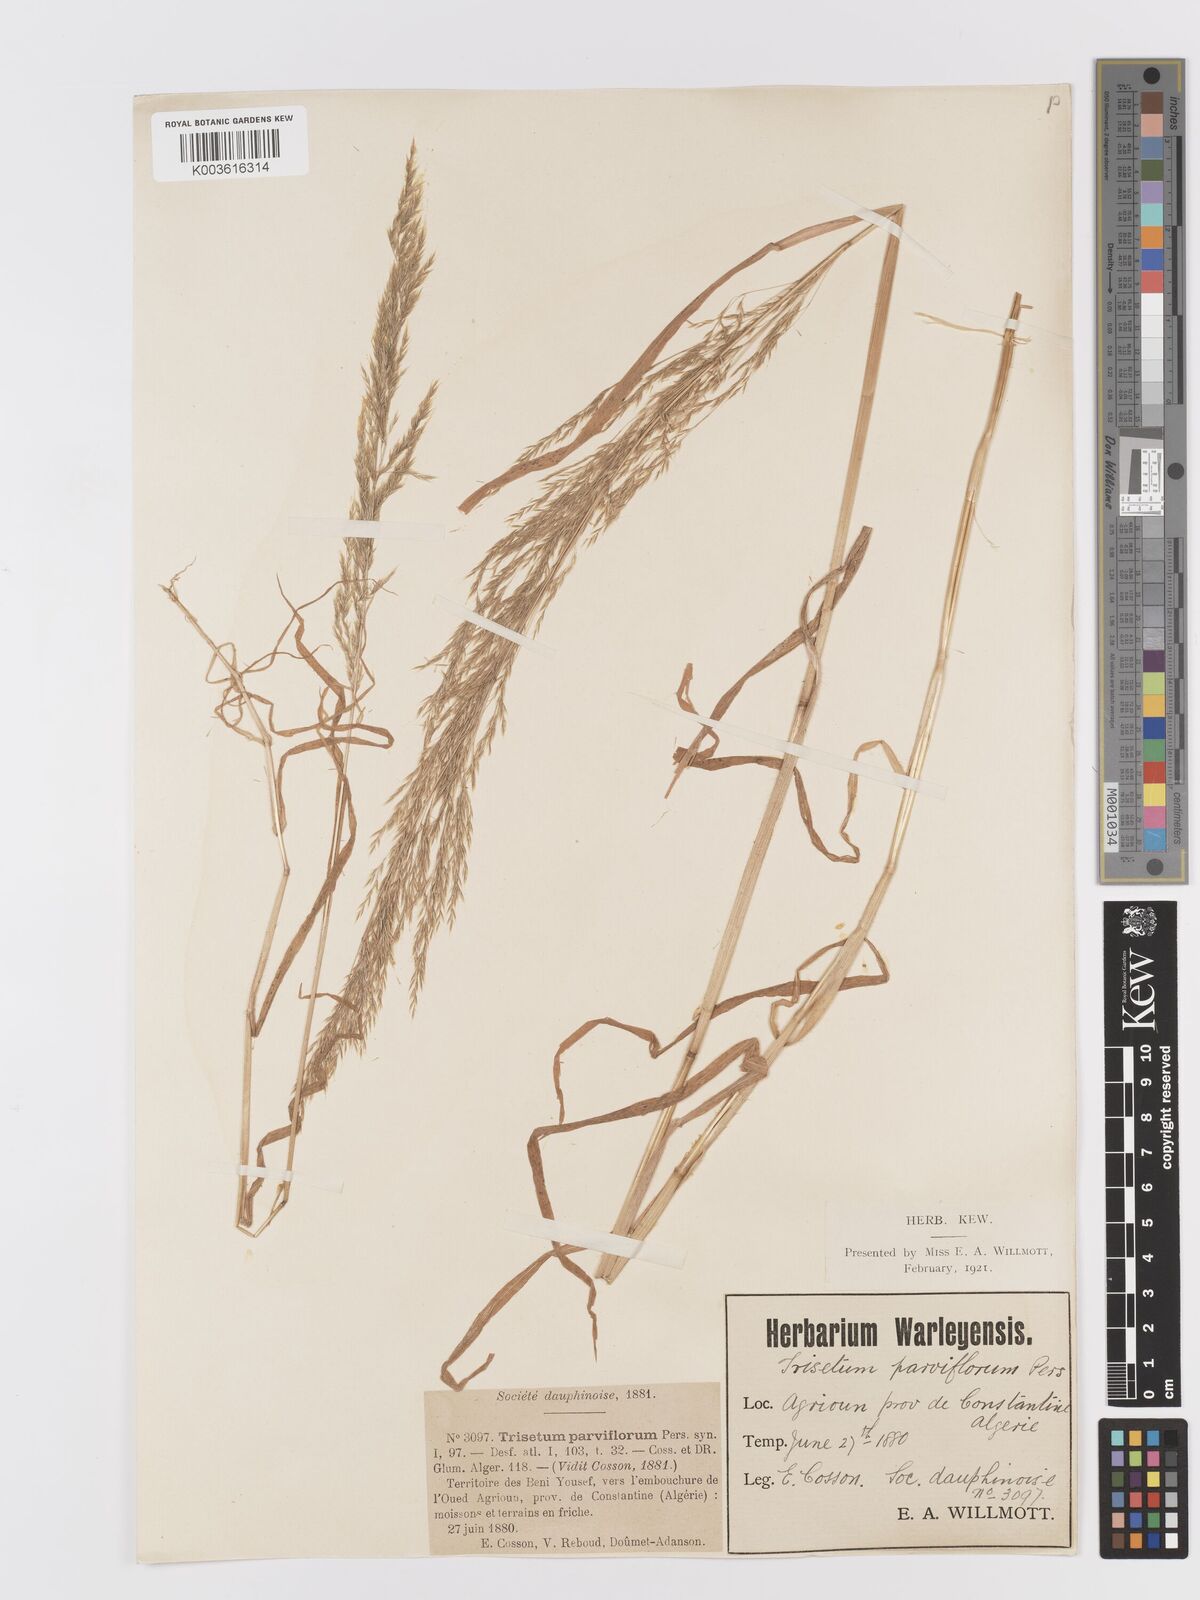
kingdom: Plantae
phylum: Tracheophyta
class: Liliopsida
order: Poales
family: Poaceae
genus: Trisetaria
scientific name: Trisetaria parviflora
